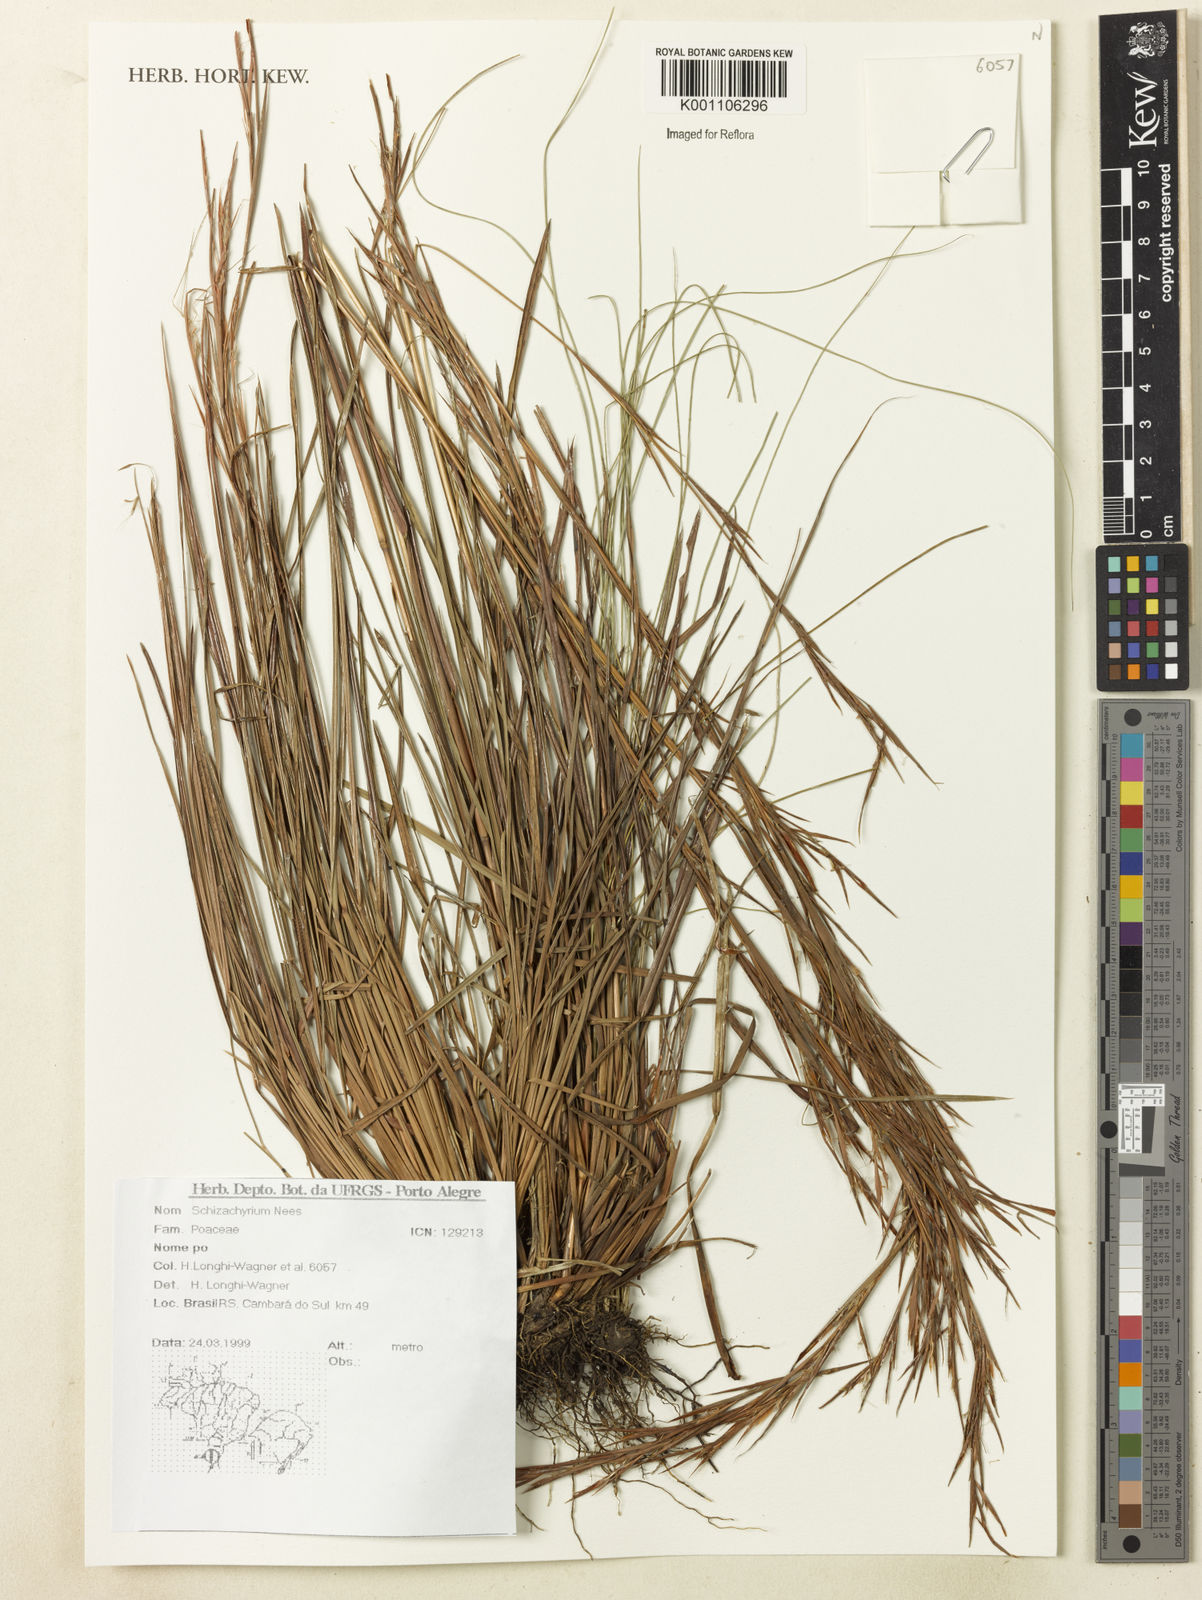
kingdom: Plantae
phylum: Tracheophyta
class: Liliopsida
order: Poales
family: Poaceae
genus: Schizachyrium
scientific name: Schizachyrium
